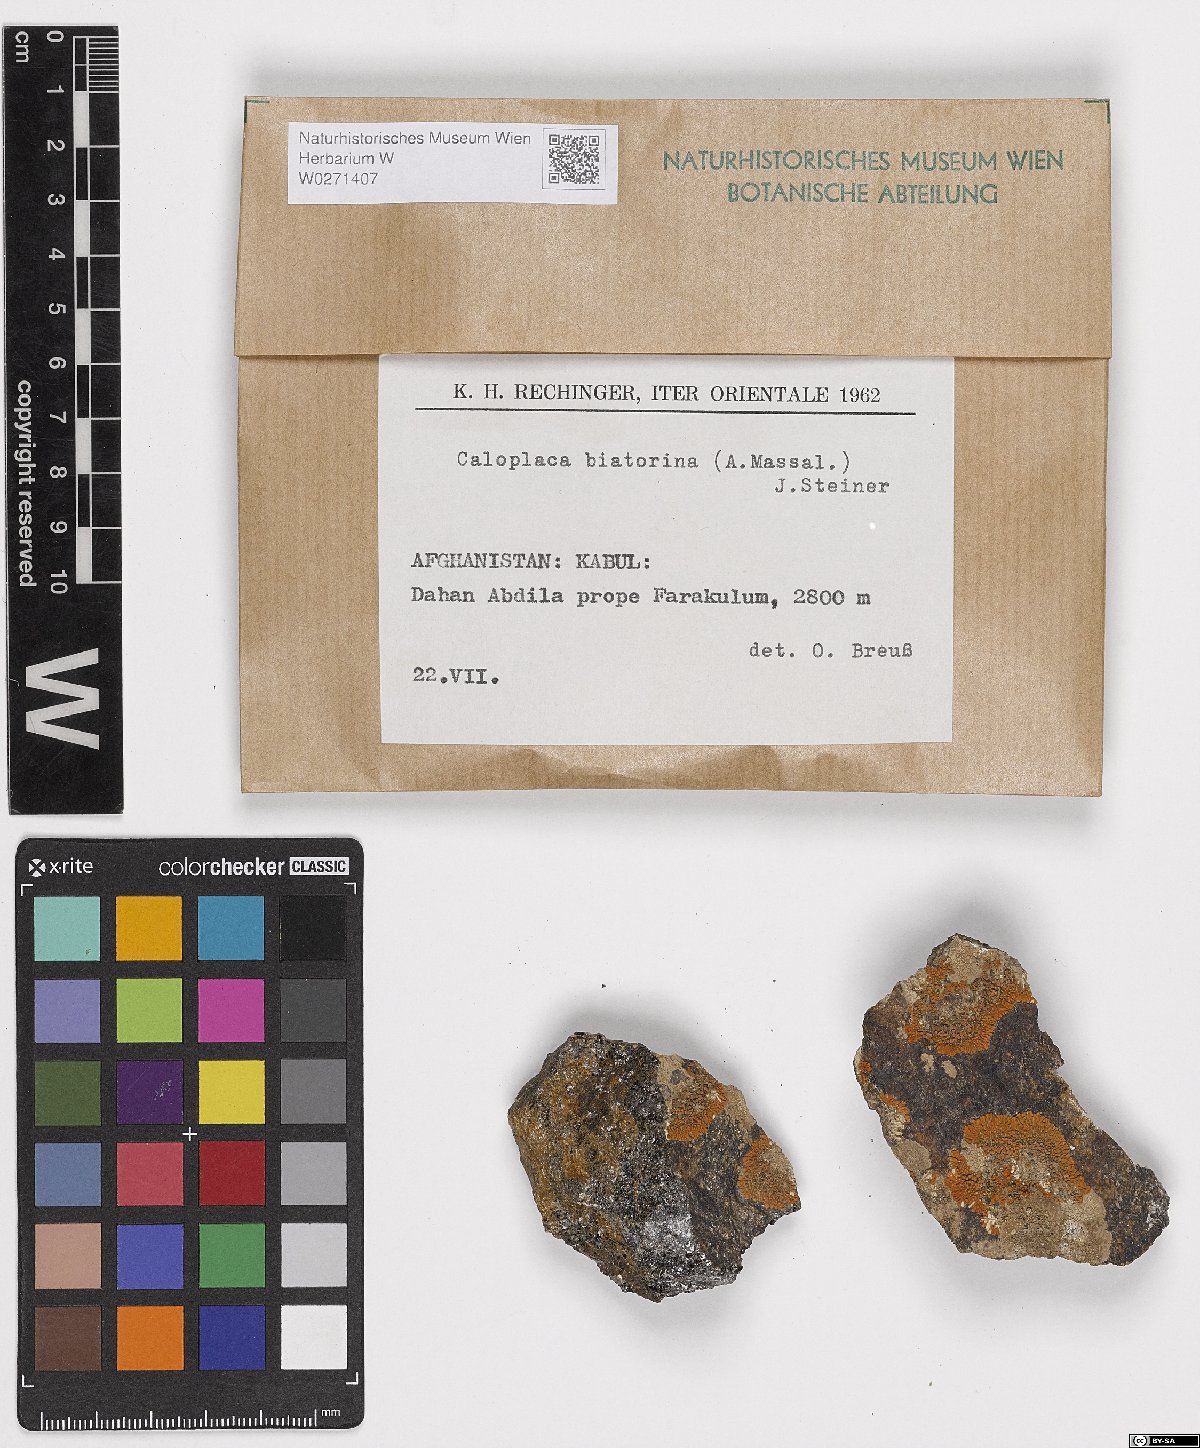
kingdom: Fungi
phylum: Ascomycota
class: Lecanoromycetes
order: Teloschistales
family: Teloschistaceae
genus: Calogaya
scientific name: Calogaya biatorina
